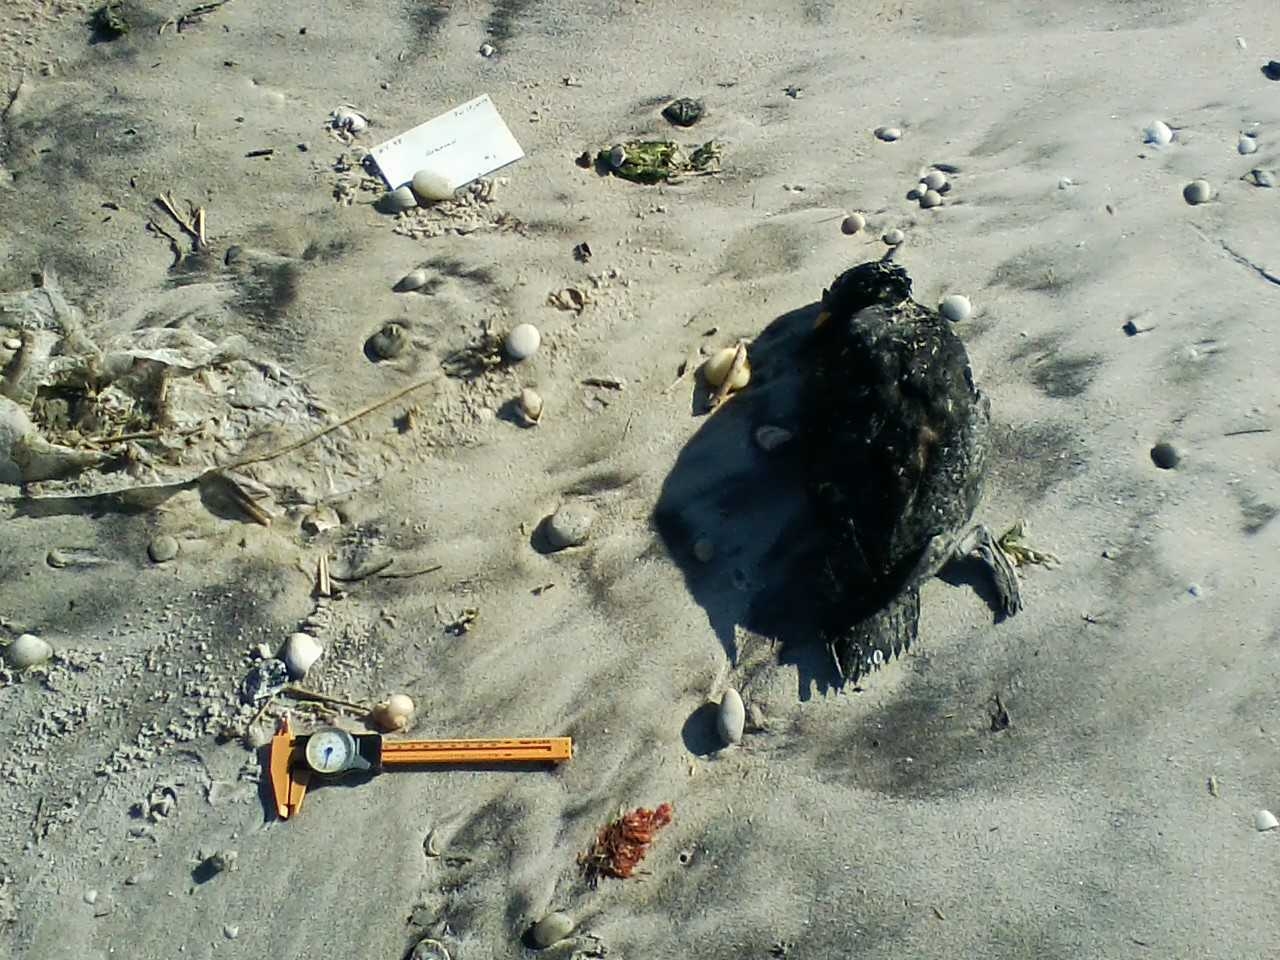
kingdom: Animalia
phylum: Chordata
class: Aves
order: Charadriiformes
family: Laridae
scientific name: Laridae
